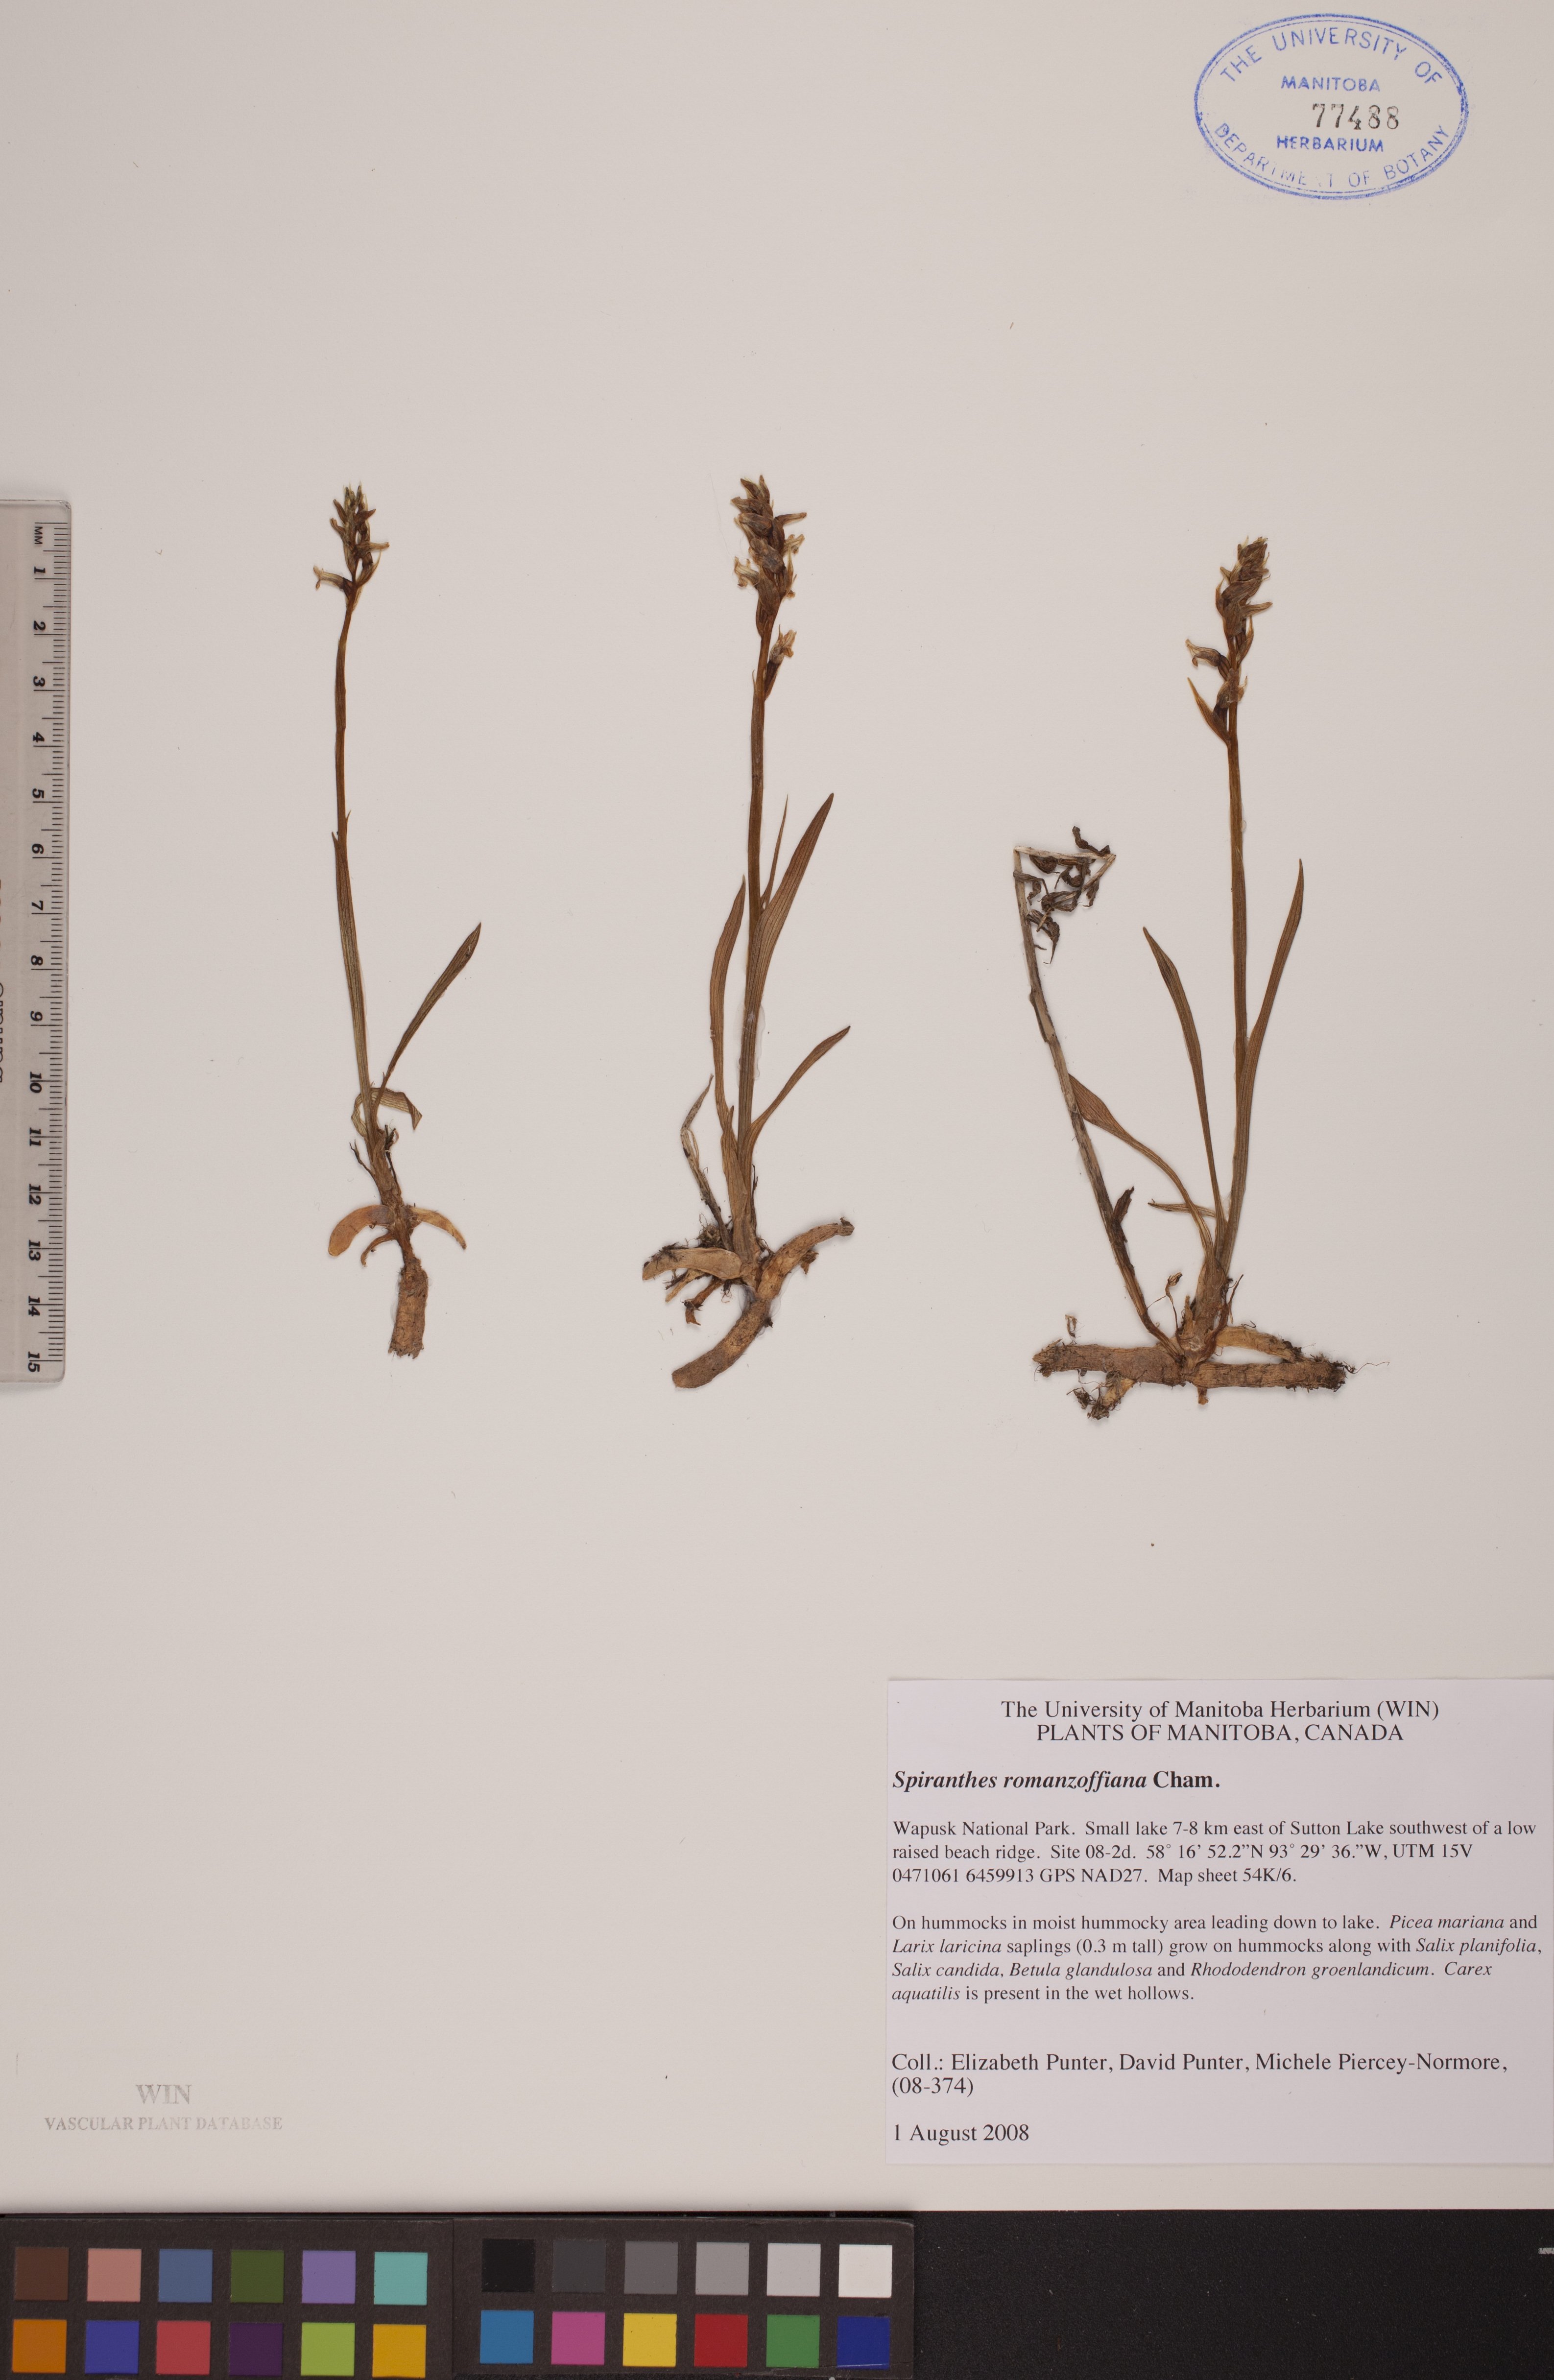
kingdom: Plantae
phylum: Tracheophyta
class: Liliopsida
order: Asparagales
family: Orchidaceae
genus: Spiranthes
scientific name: Spiranthes romanzoffiana
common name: Irish lady's-tresses
